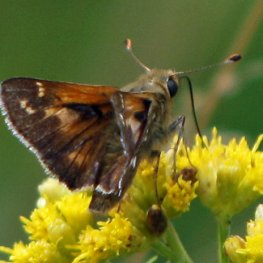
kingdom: Animalia
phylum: Arthropoda
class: Insecta
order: Lepidoptera
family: Hesperiidae
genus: Polites
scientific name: Polites coras
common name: Peck's Skipper
